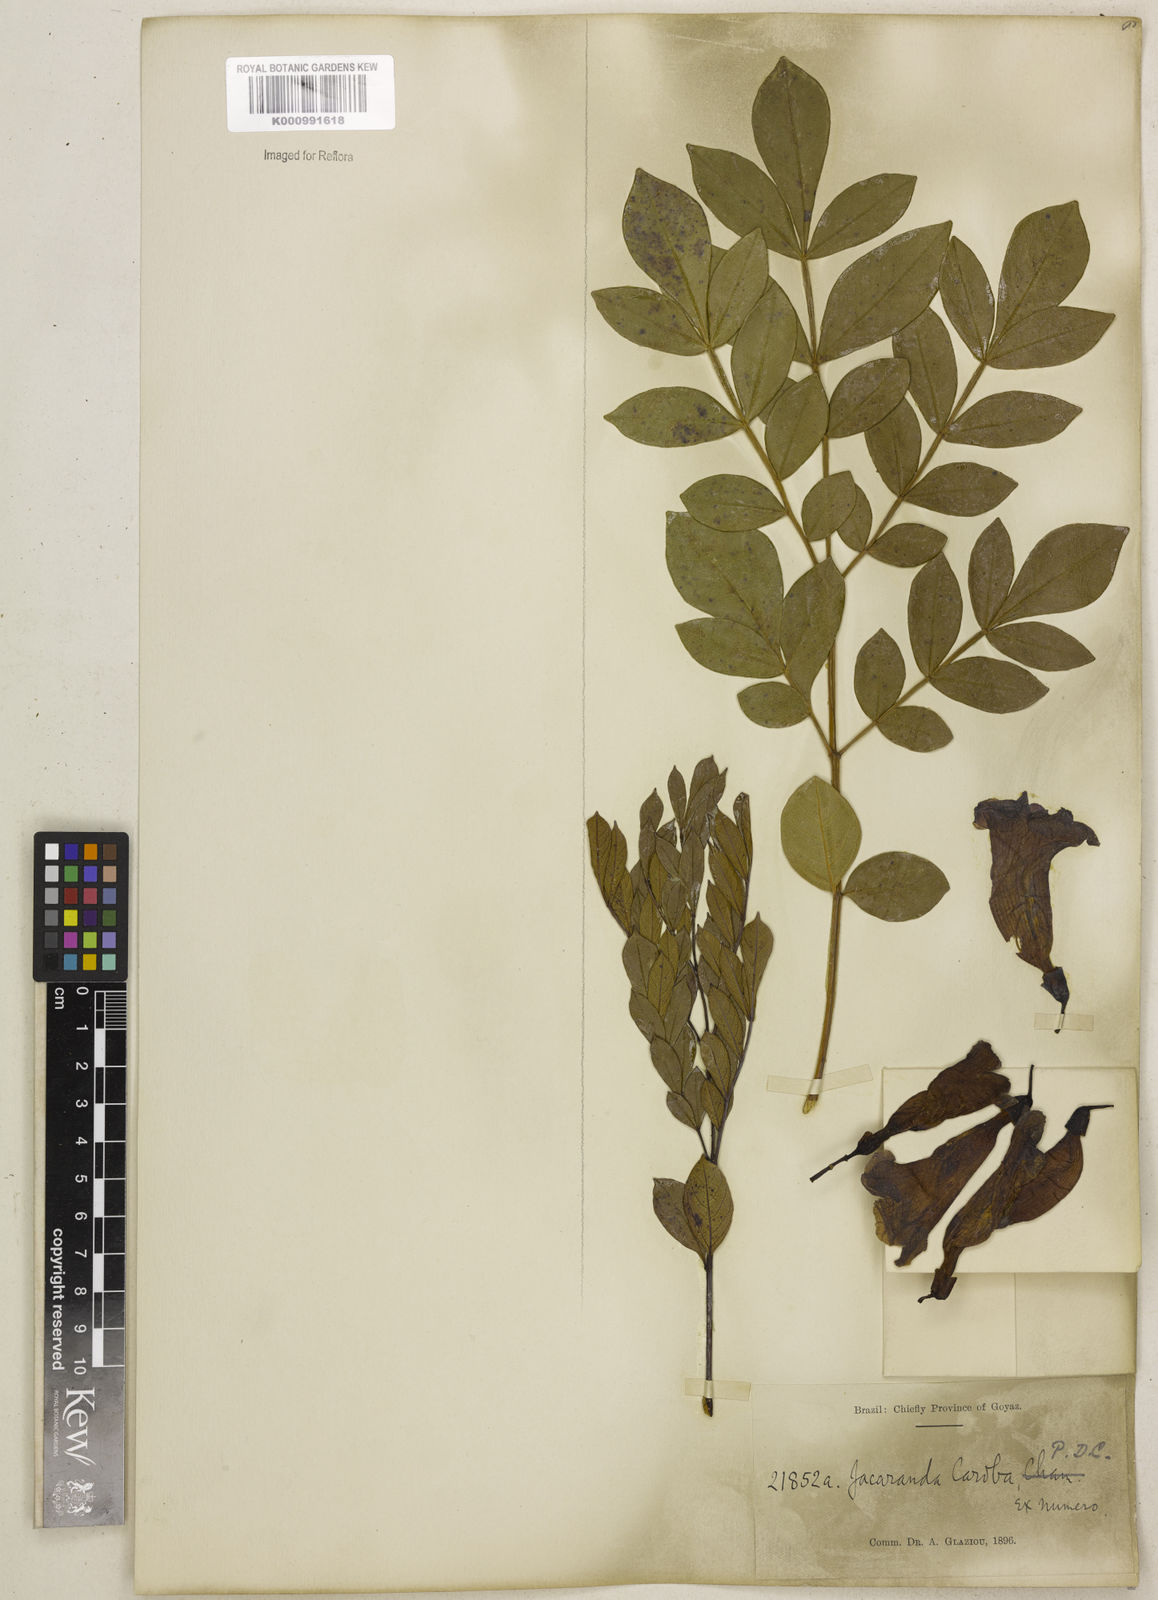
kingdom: Plantae
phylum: Tracheophyta
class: Magnoliopsida
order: Lamiales
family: Bignoniaceae
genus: Jacaranda
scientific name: Jacaranda caroba
